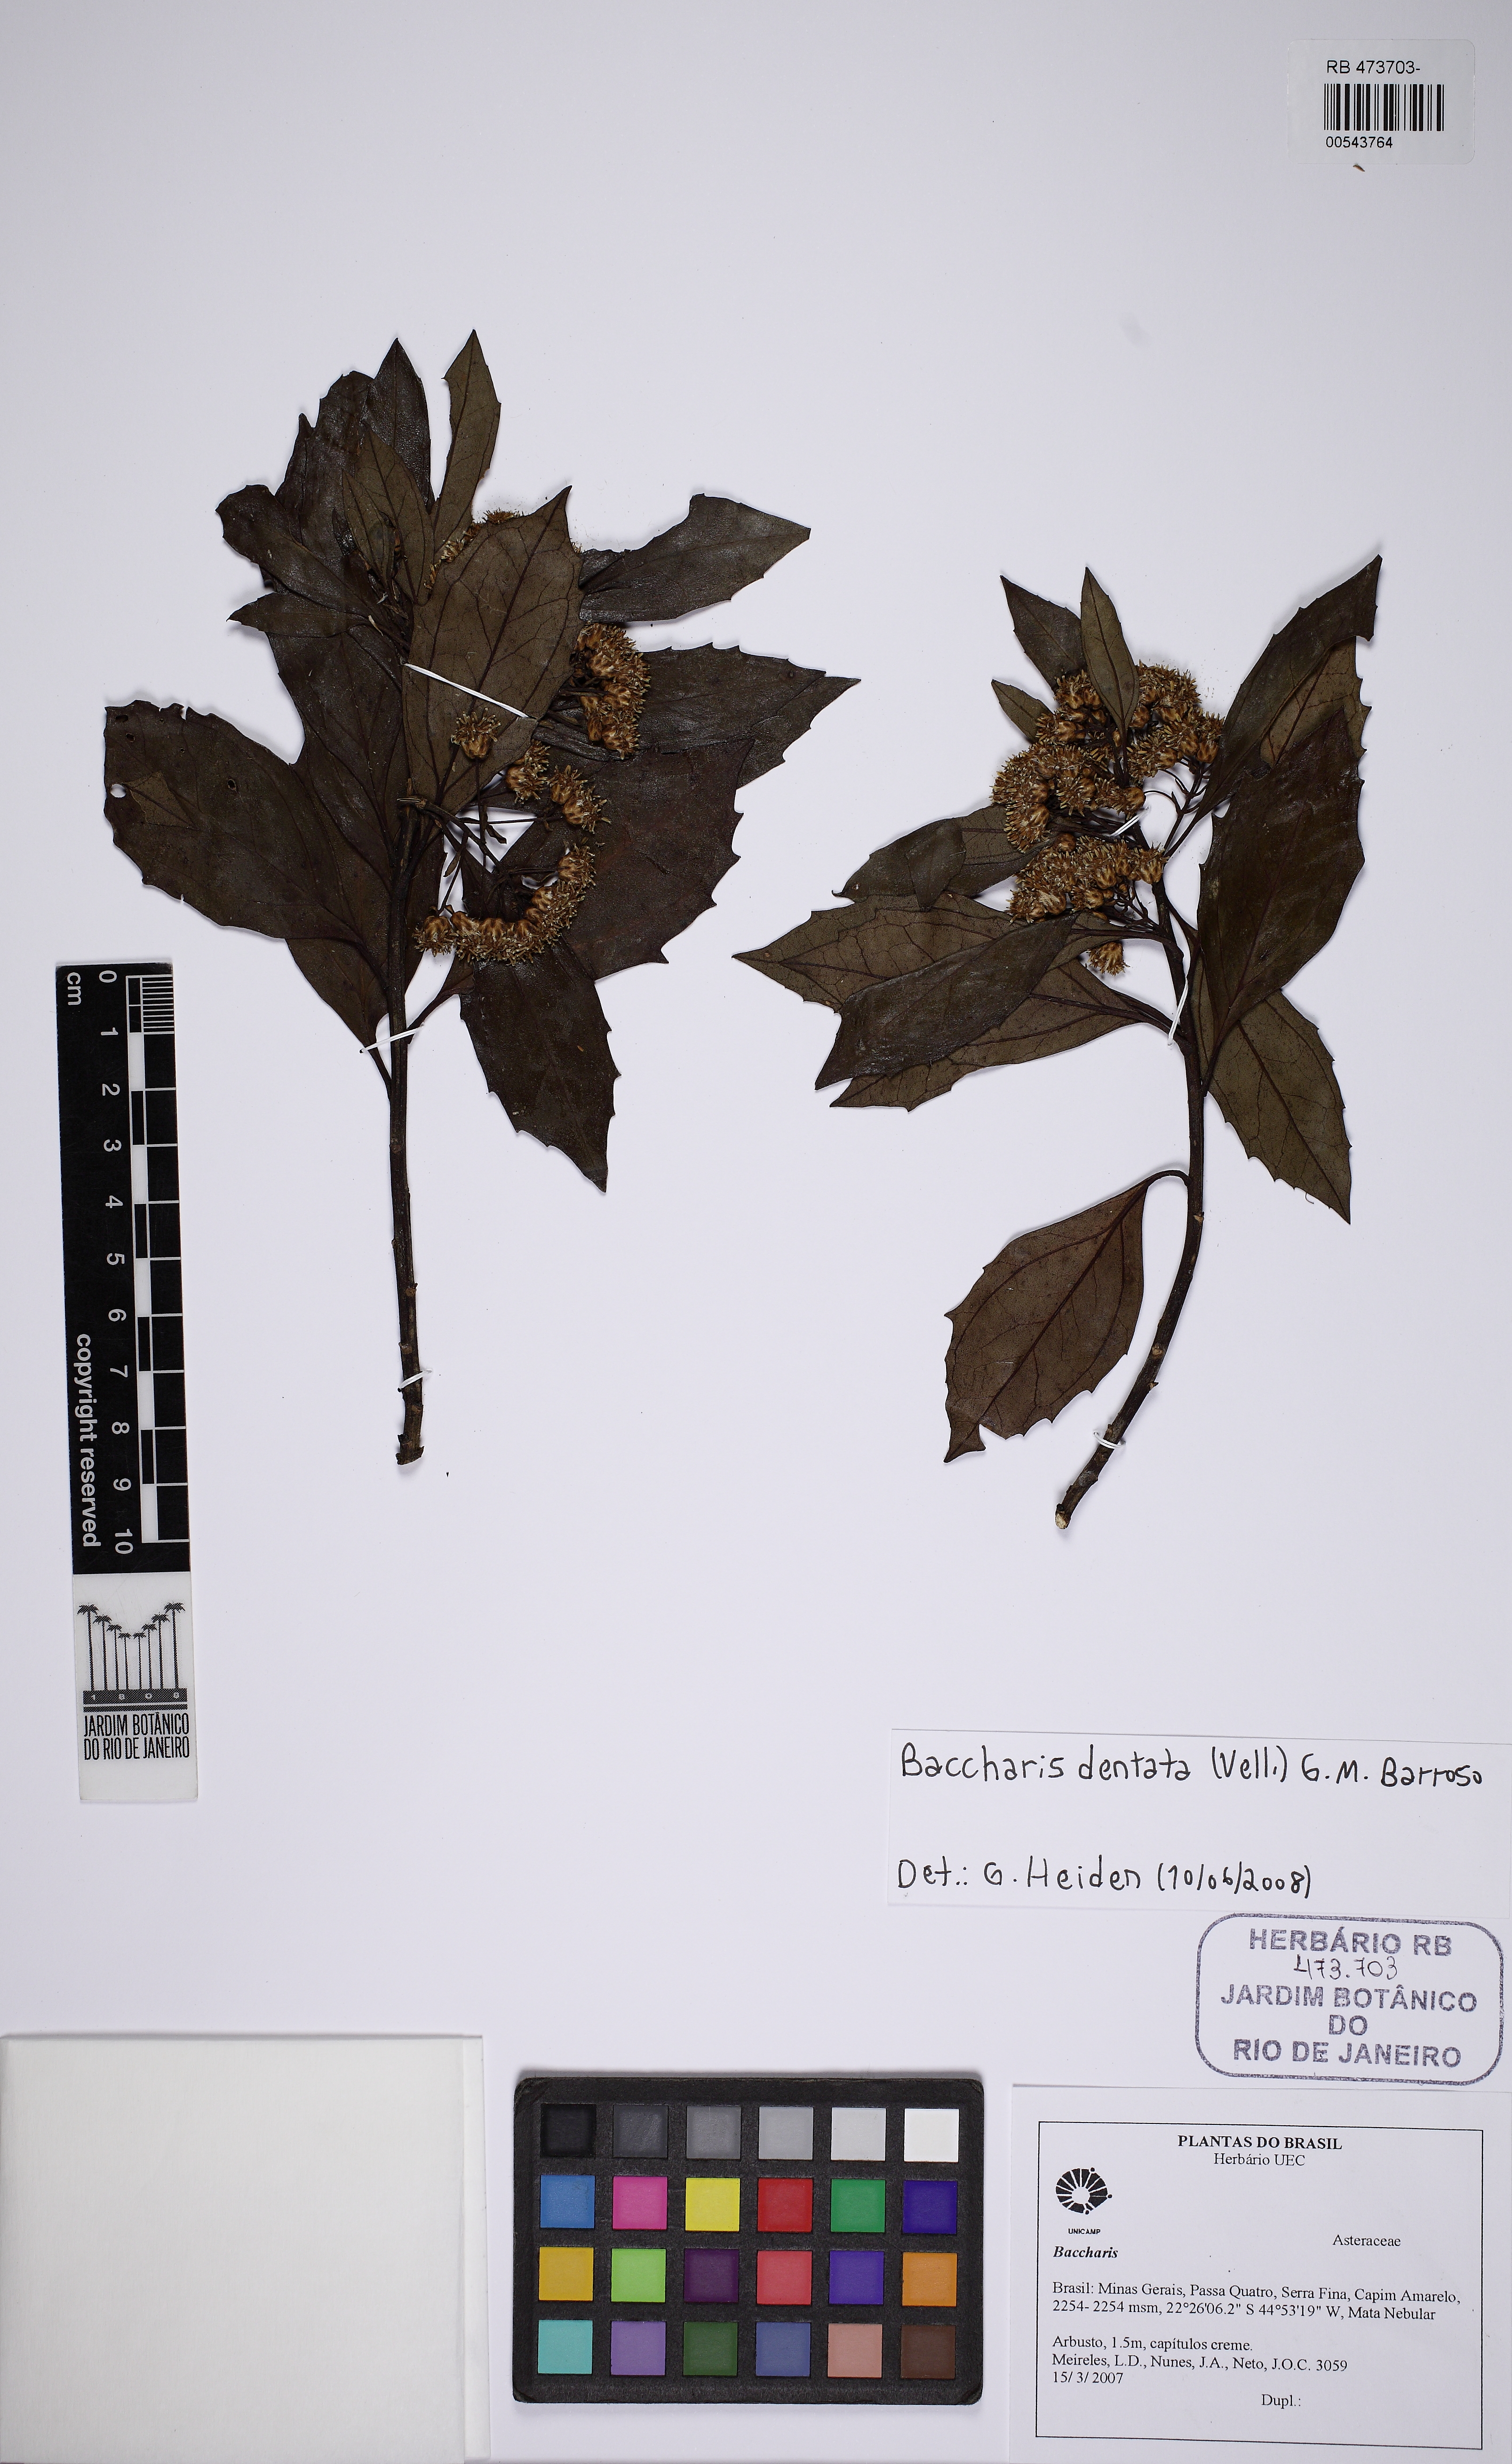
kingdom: Plantae
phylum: Tracheophyta
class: Magnoliopsida
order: Asterales
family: Asteraceae
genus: Baccharis
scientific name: Baccharis dentata
